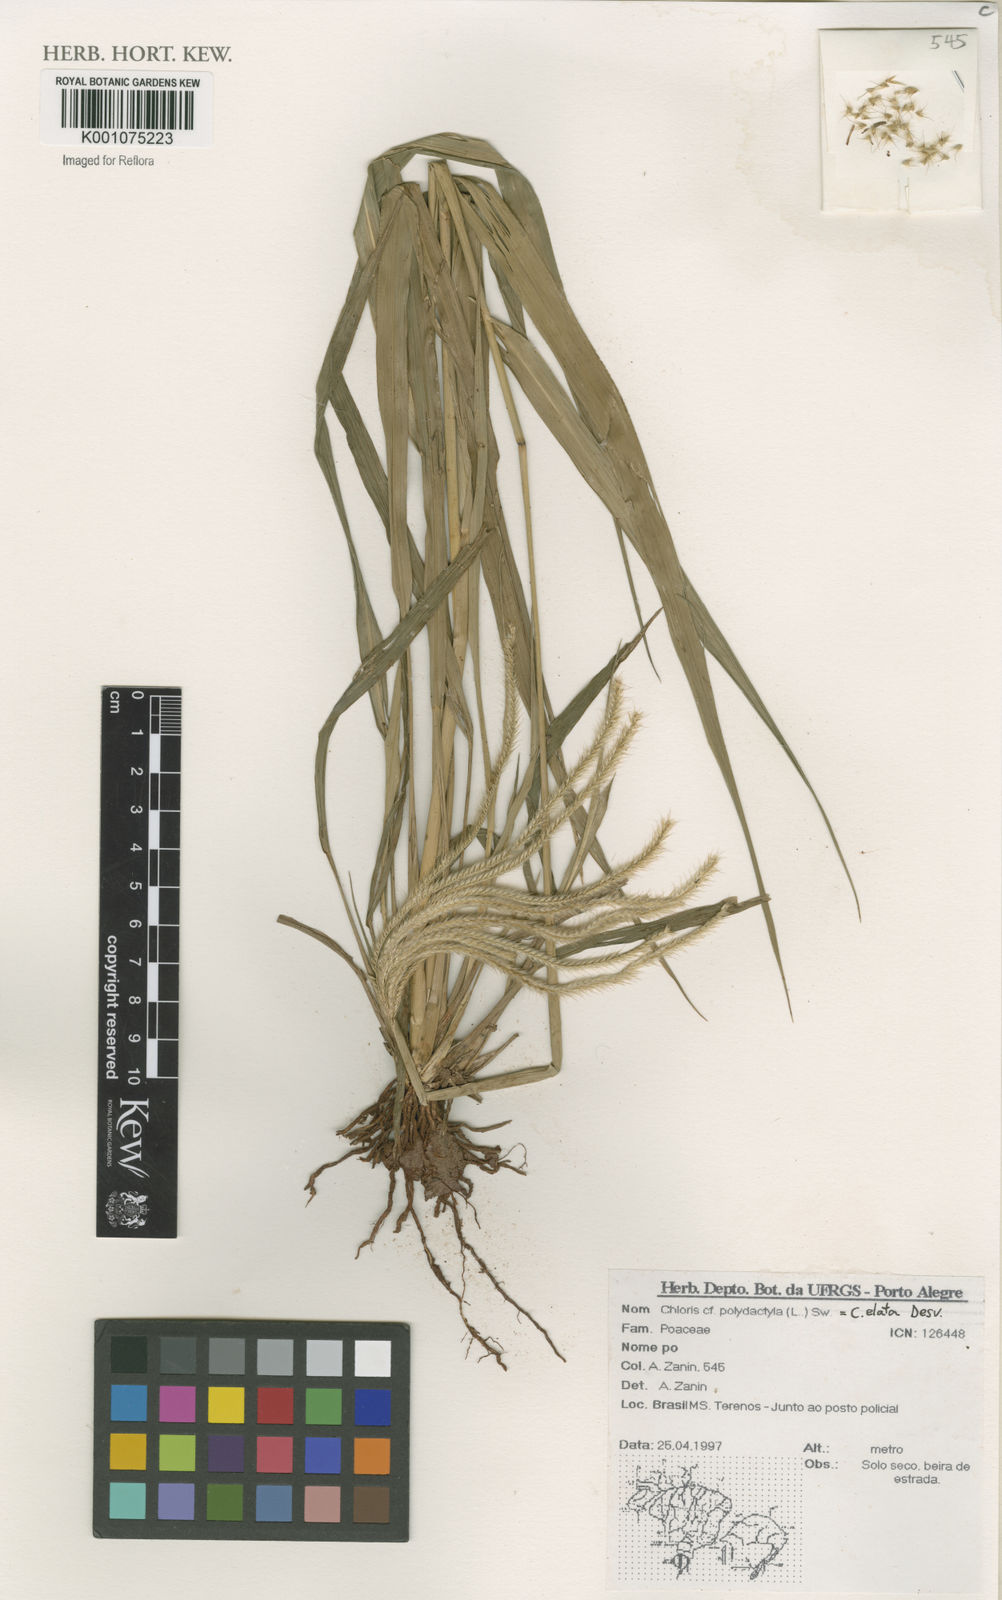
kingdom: Plantae
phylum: Tracheophyta
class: Liliopsida
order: Poales
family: Poaceae
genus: Stapfochloa
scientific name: Stapfochloa elata
